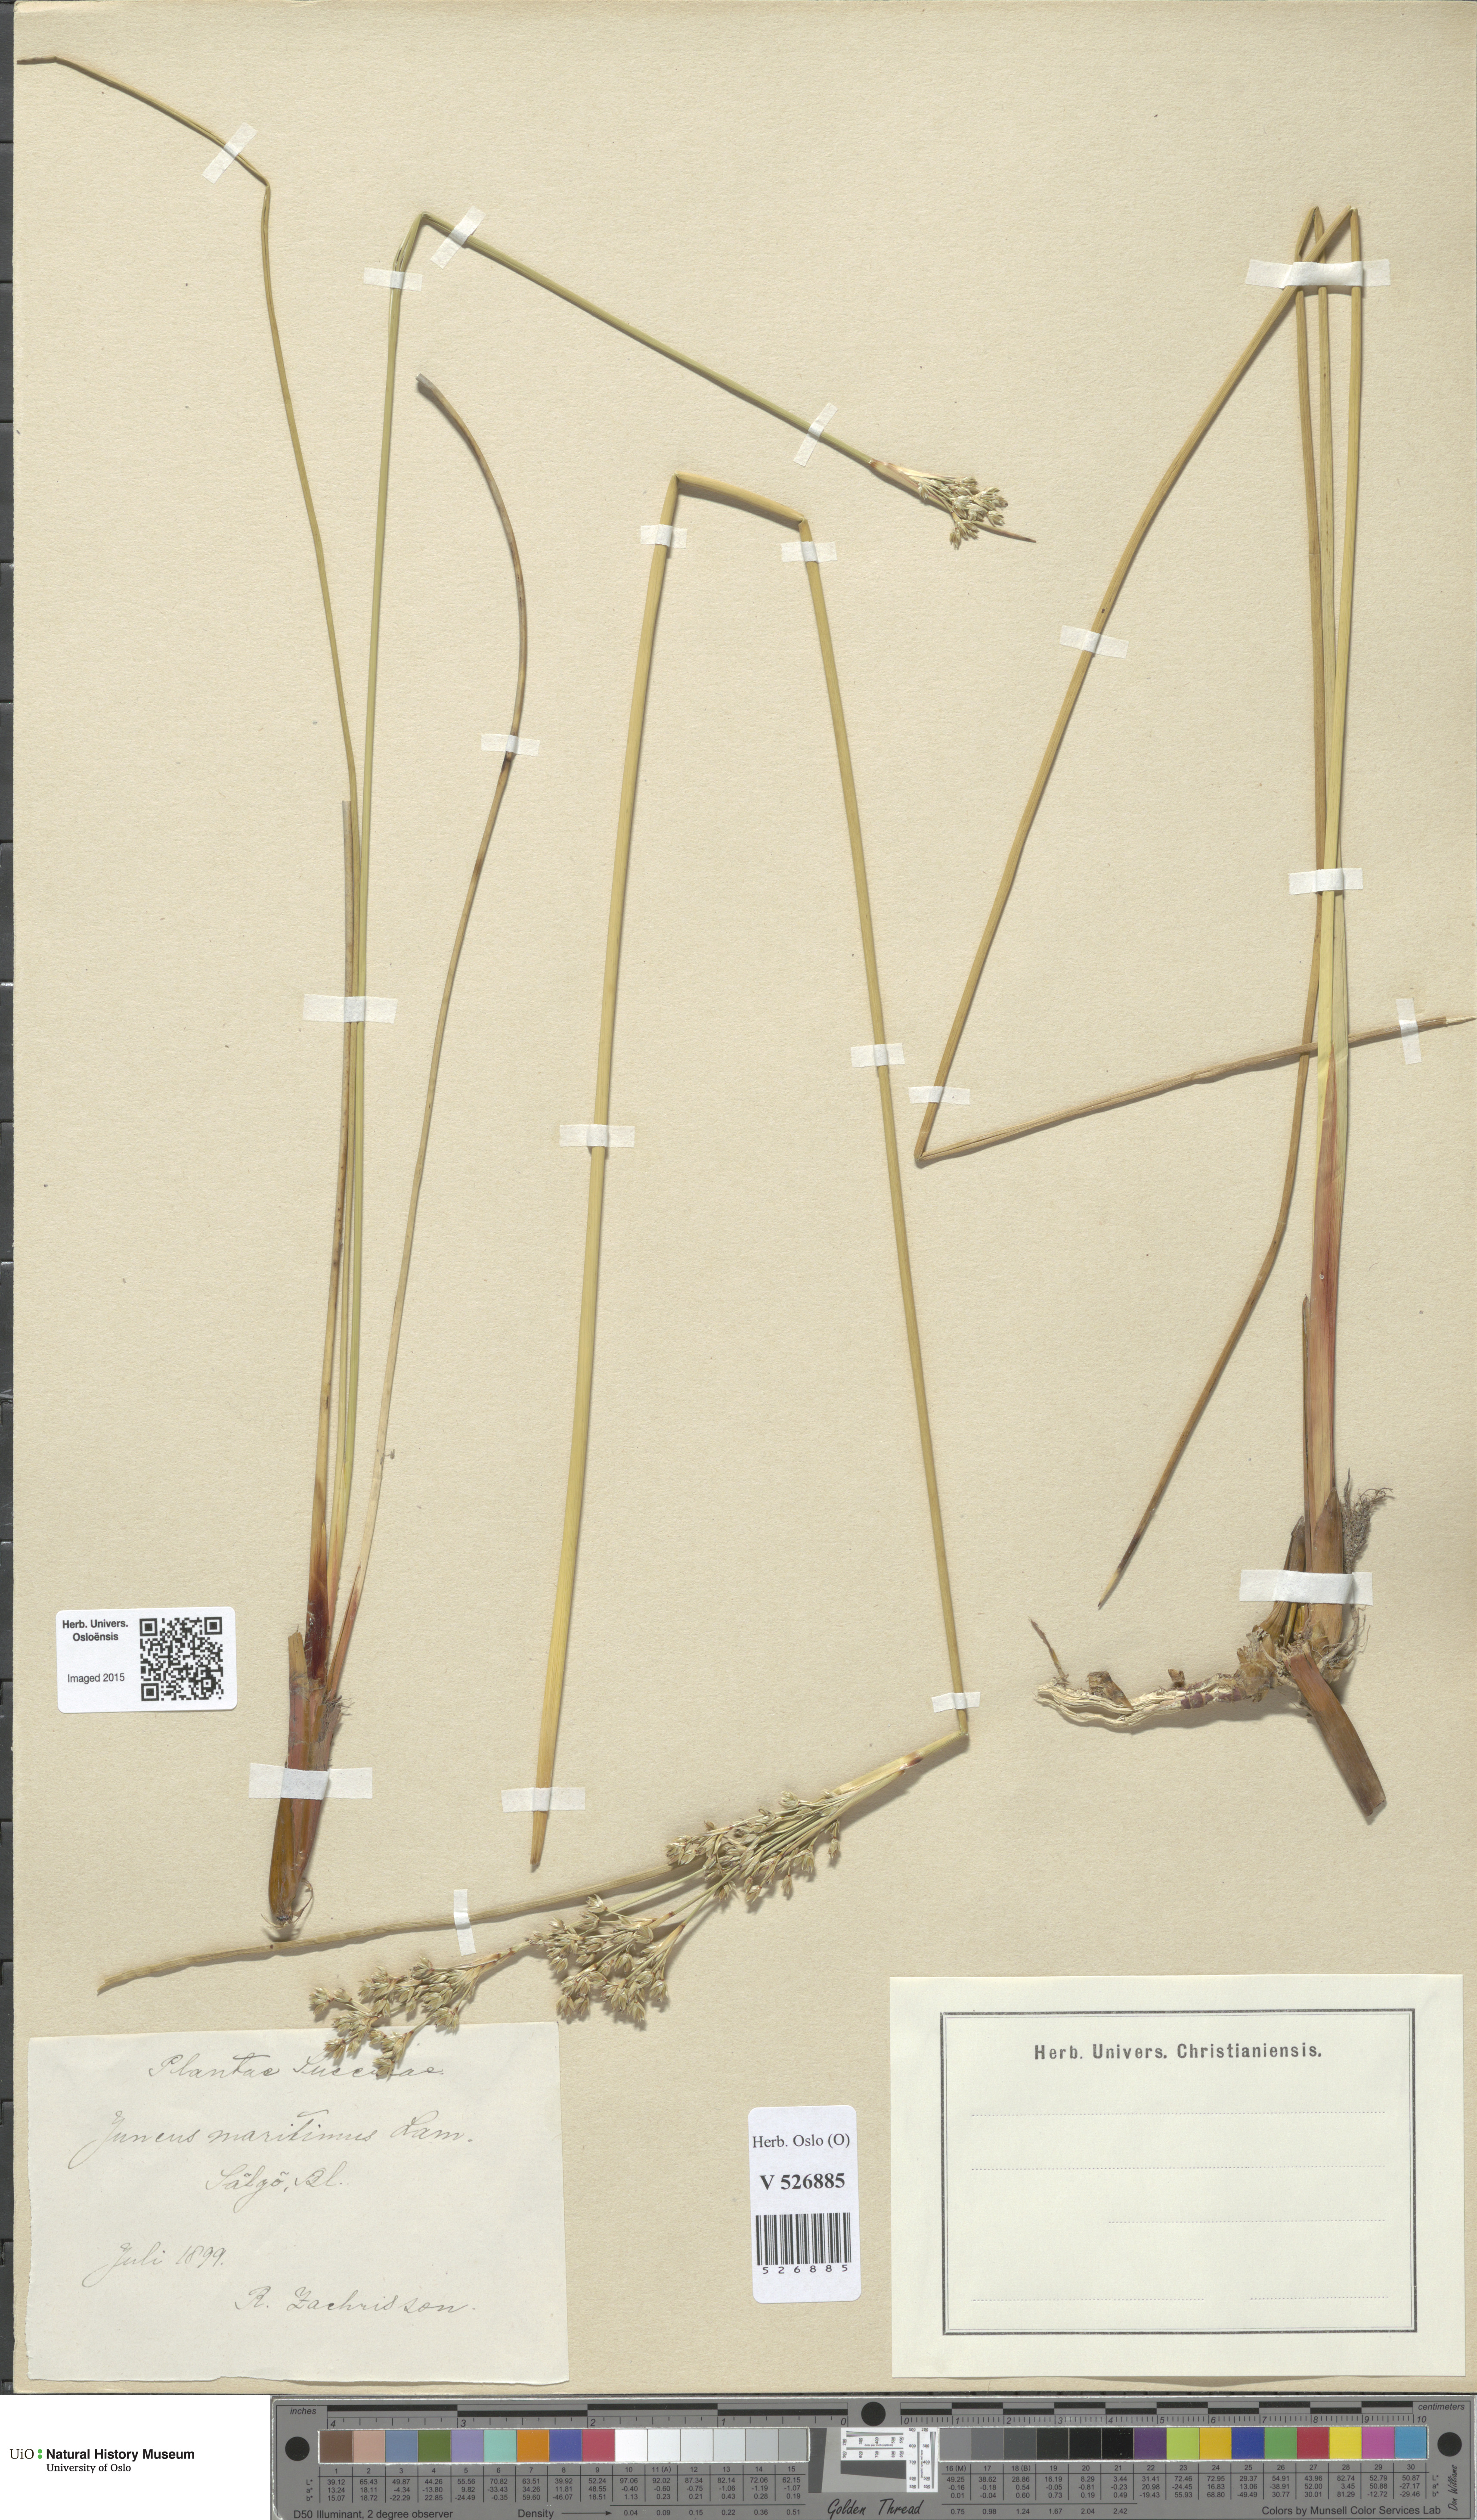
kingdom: Plantae
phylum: Tracheophyta
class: Liliopsida
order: Poales
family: Juncaceae
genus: Juncus
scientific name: Juncus maritimus
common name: Sea rush
